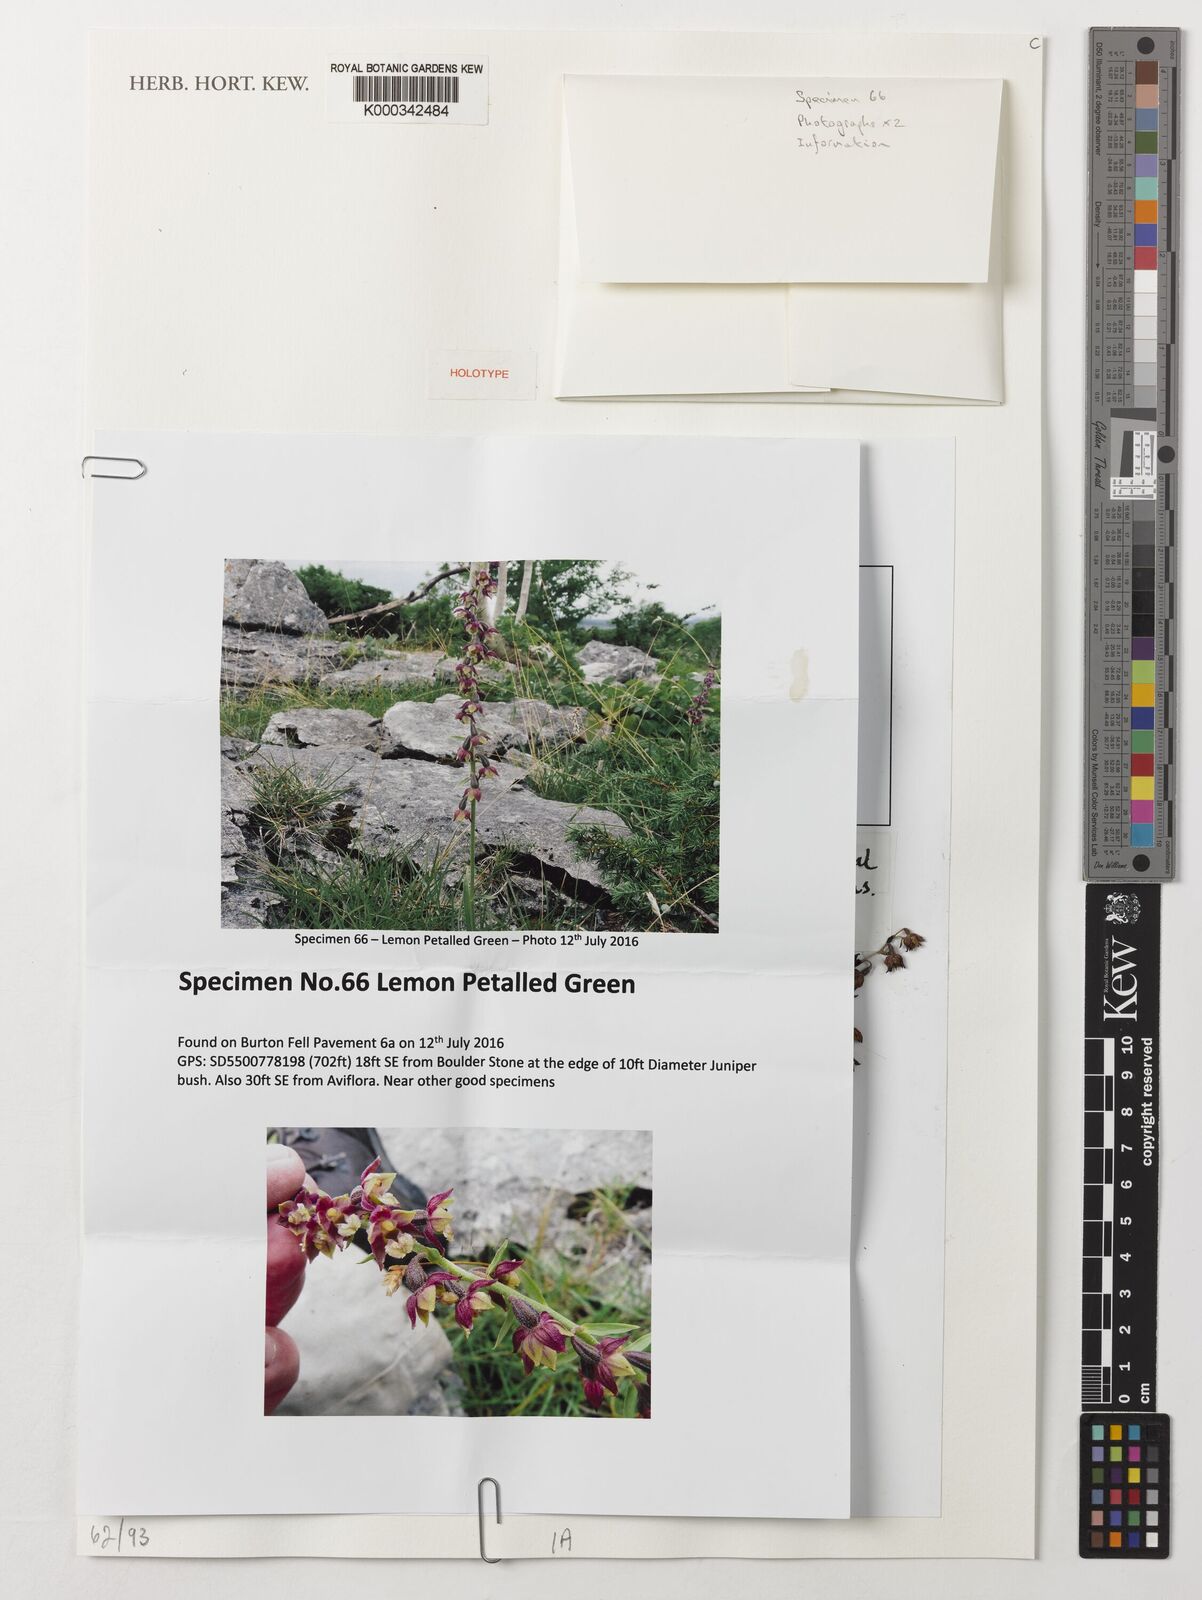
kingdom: Plantae
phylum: Tracheophyta
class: Liliopsida
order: Asparagales
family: Orchidaceae
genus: Epipactis
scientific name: Epipactis atrorubens
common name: Dark-red helleborine
